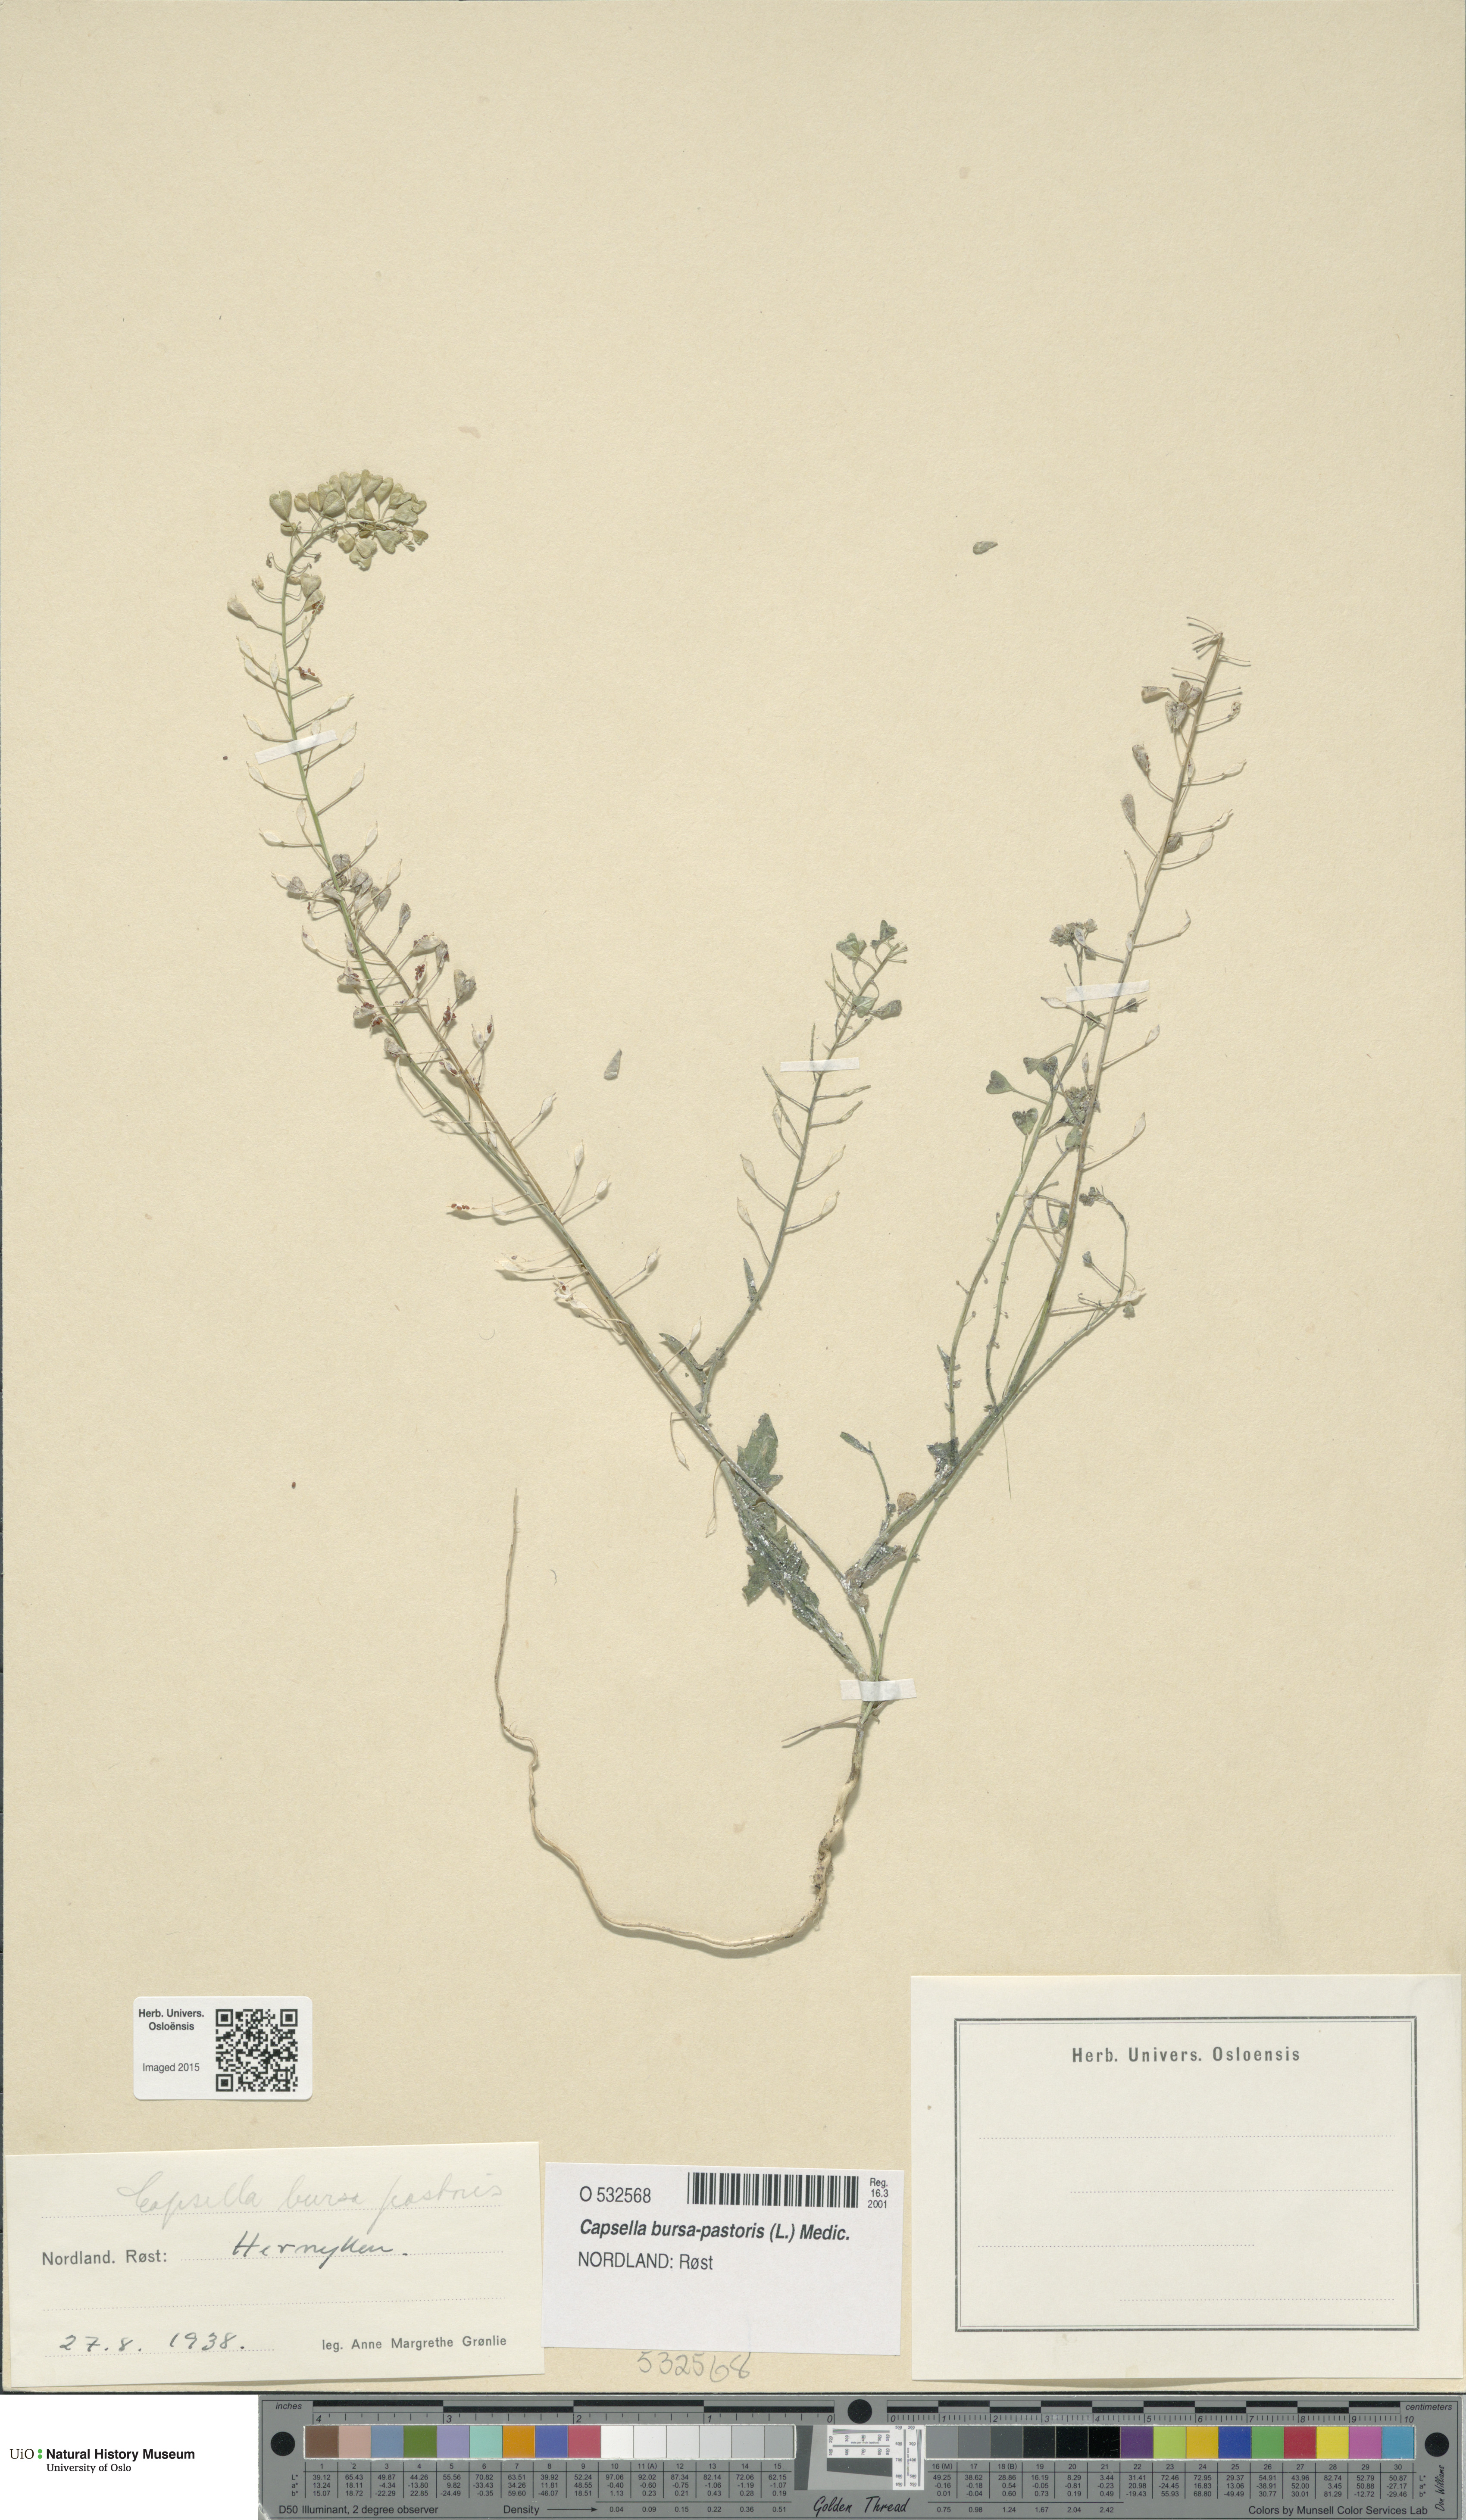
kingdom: Plantae
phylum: Tracheophyta
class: Magnoliopsida
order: Brassicales
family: Brassicaceae
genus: Capsella
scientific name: Capsella bursa-pastoris
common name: Shepherd's purse
